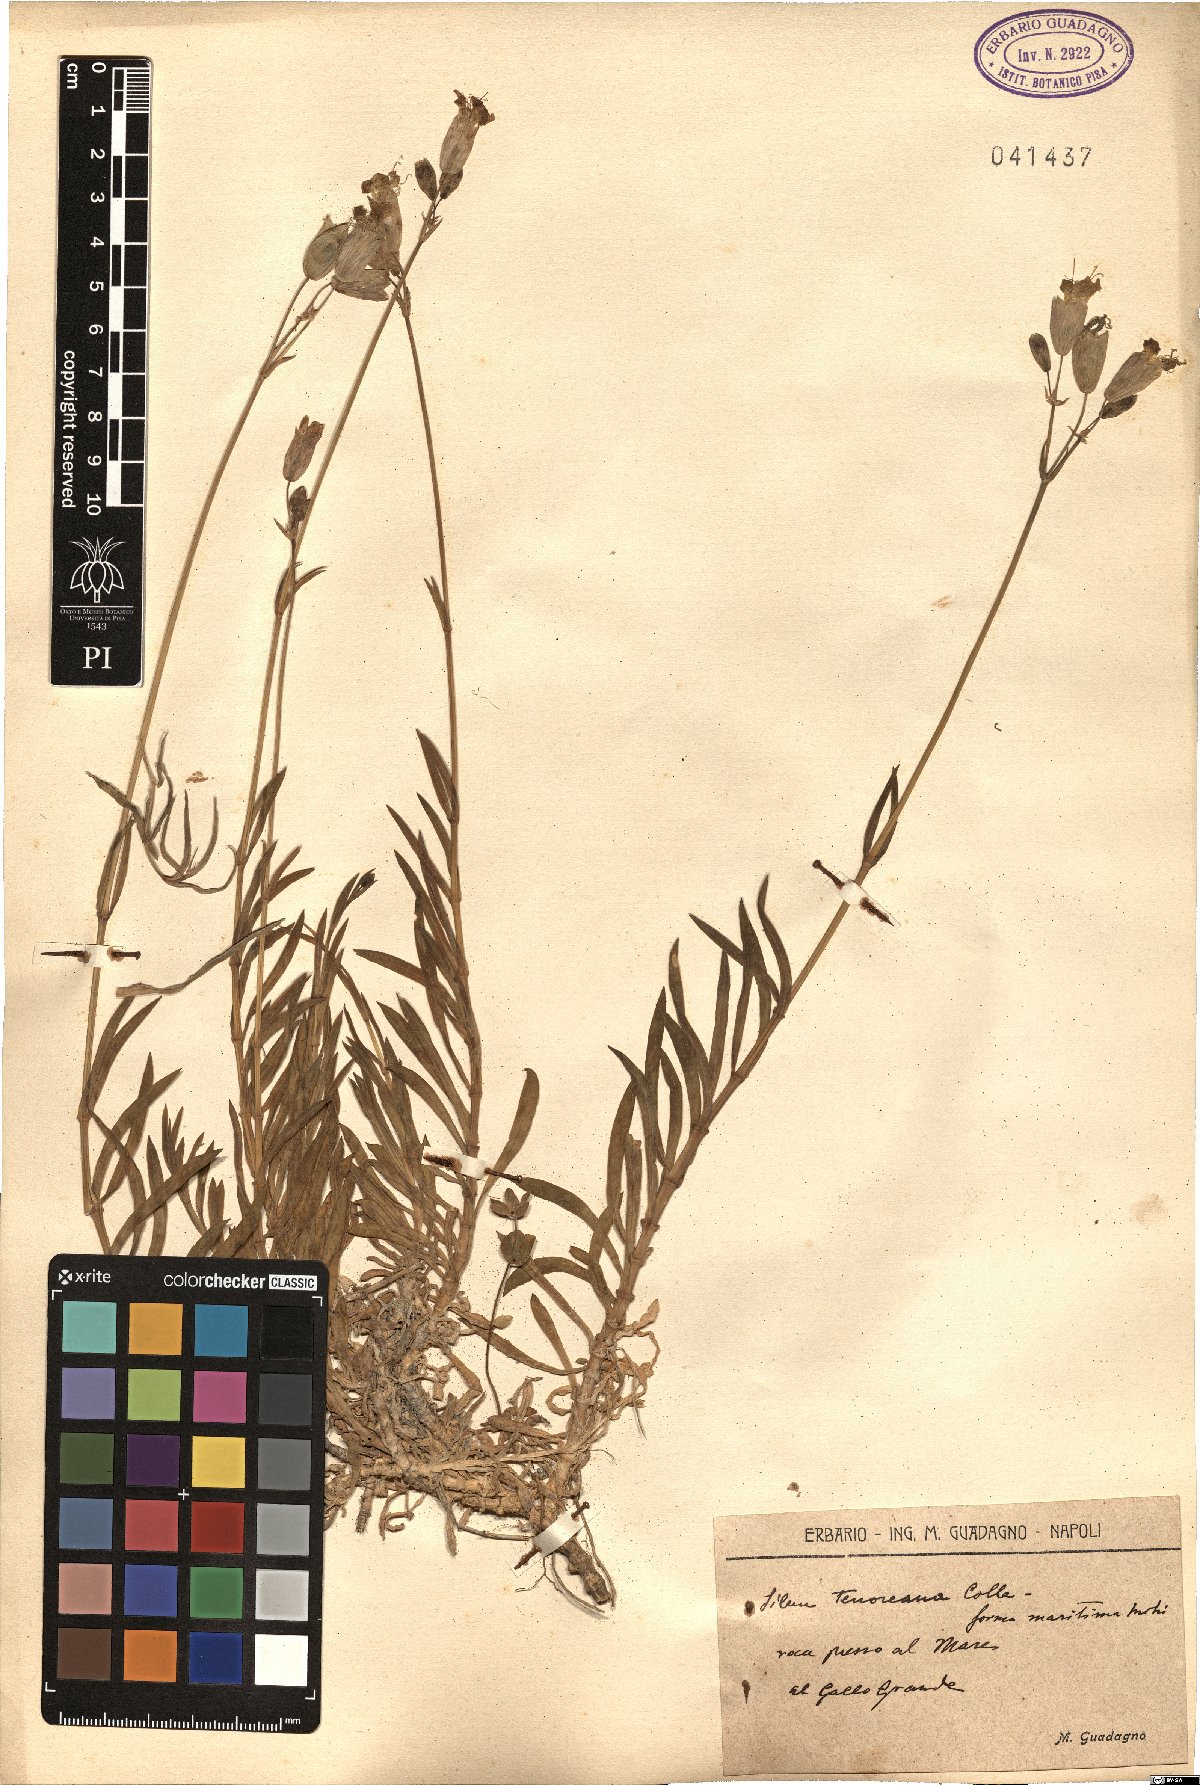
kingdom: Plantae
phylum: Tracheophyta
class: Magnoliopsida
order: Caryophyllales
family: Caryophyllaceae
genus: Silene
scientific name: Silene vulgaris
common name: Bladder campion
